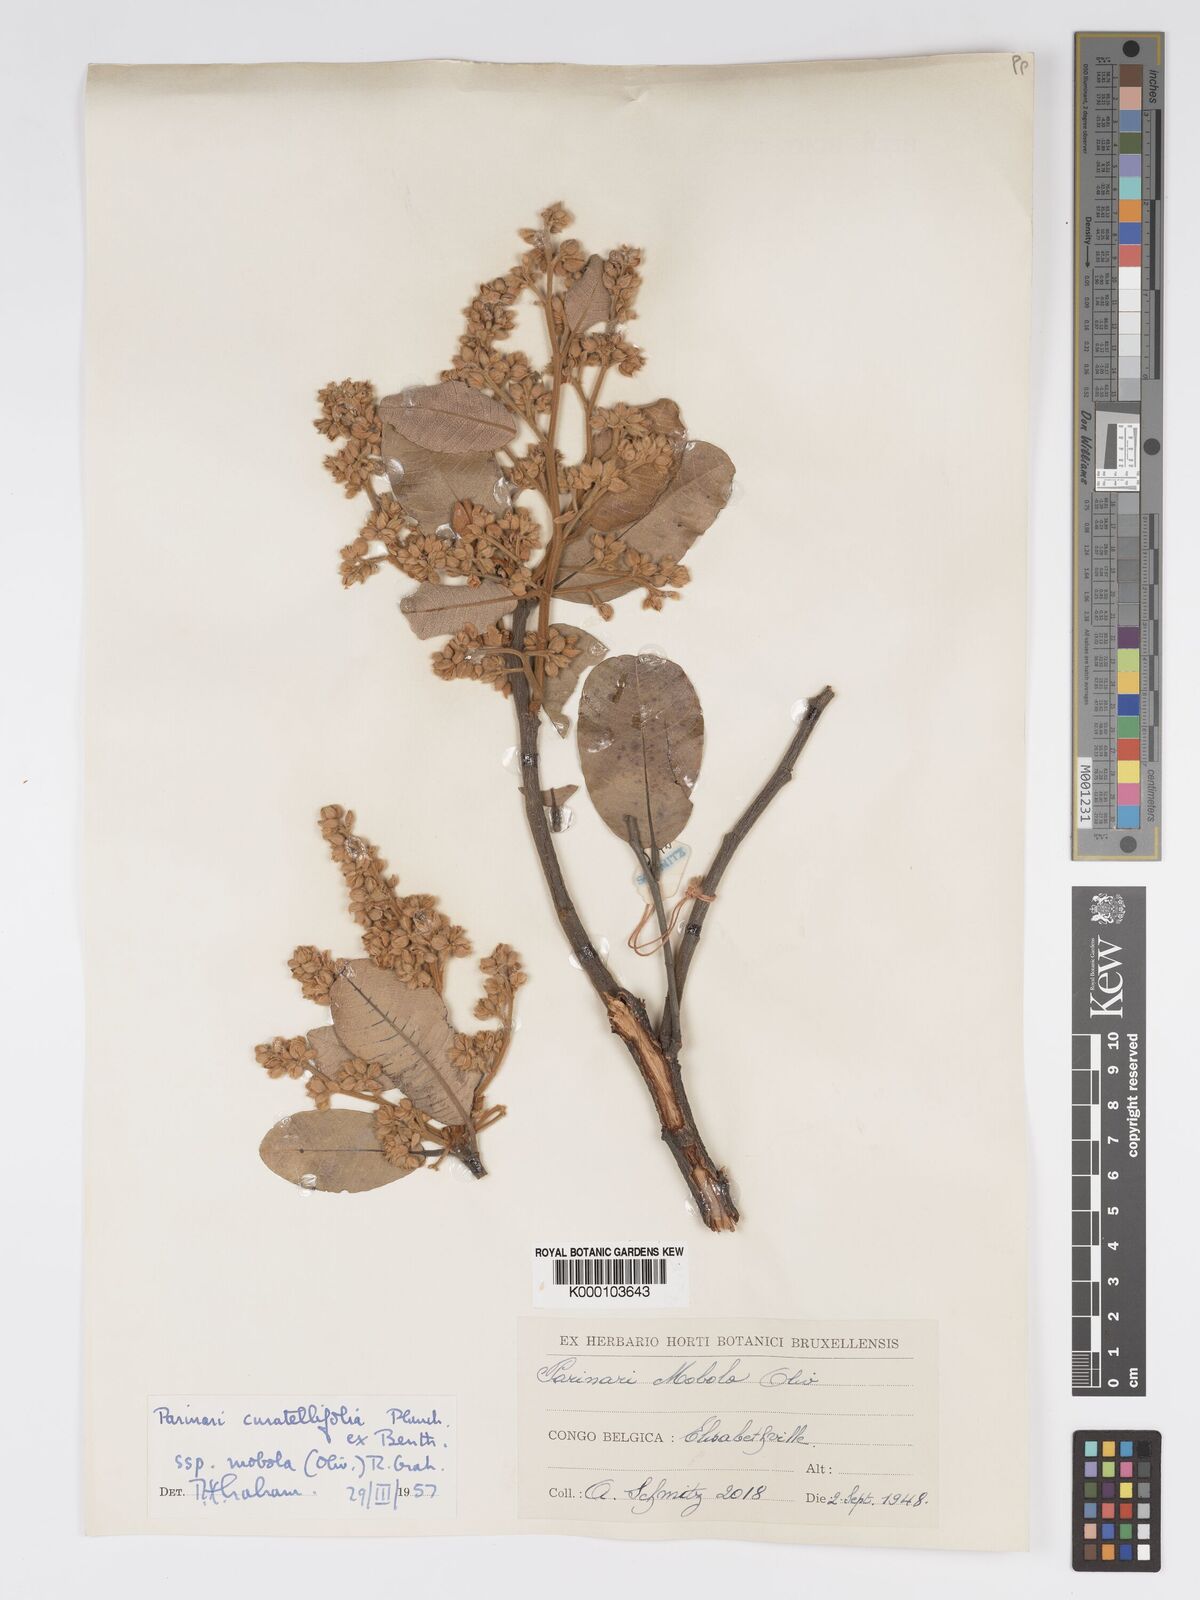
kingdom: Plantae
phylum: Tracheophyta
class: Magnoliopsida
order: Malpighiales
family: Chrysobalanaceae
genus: Parinari
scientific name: Parinari curatellifolia
